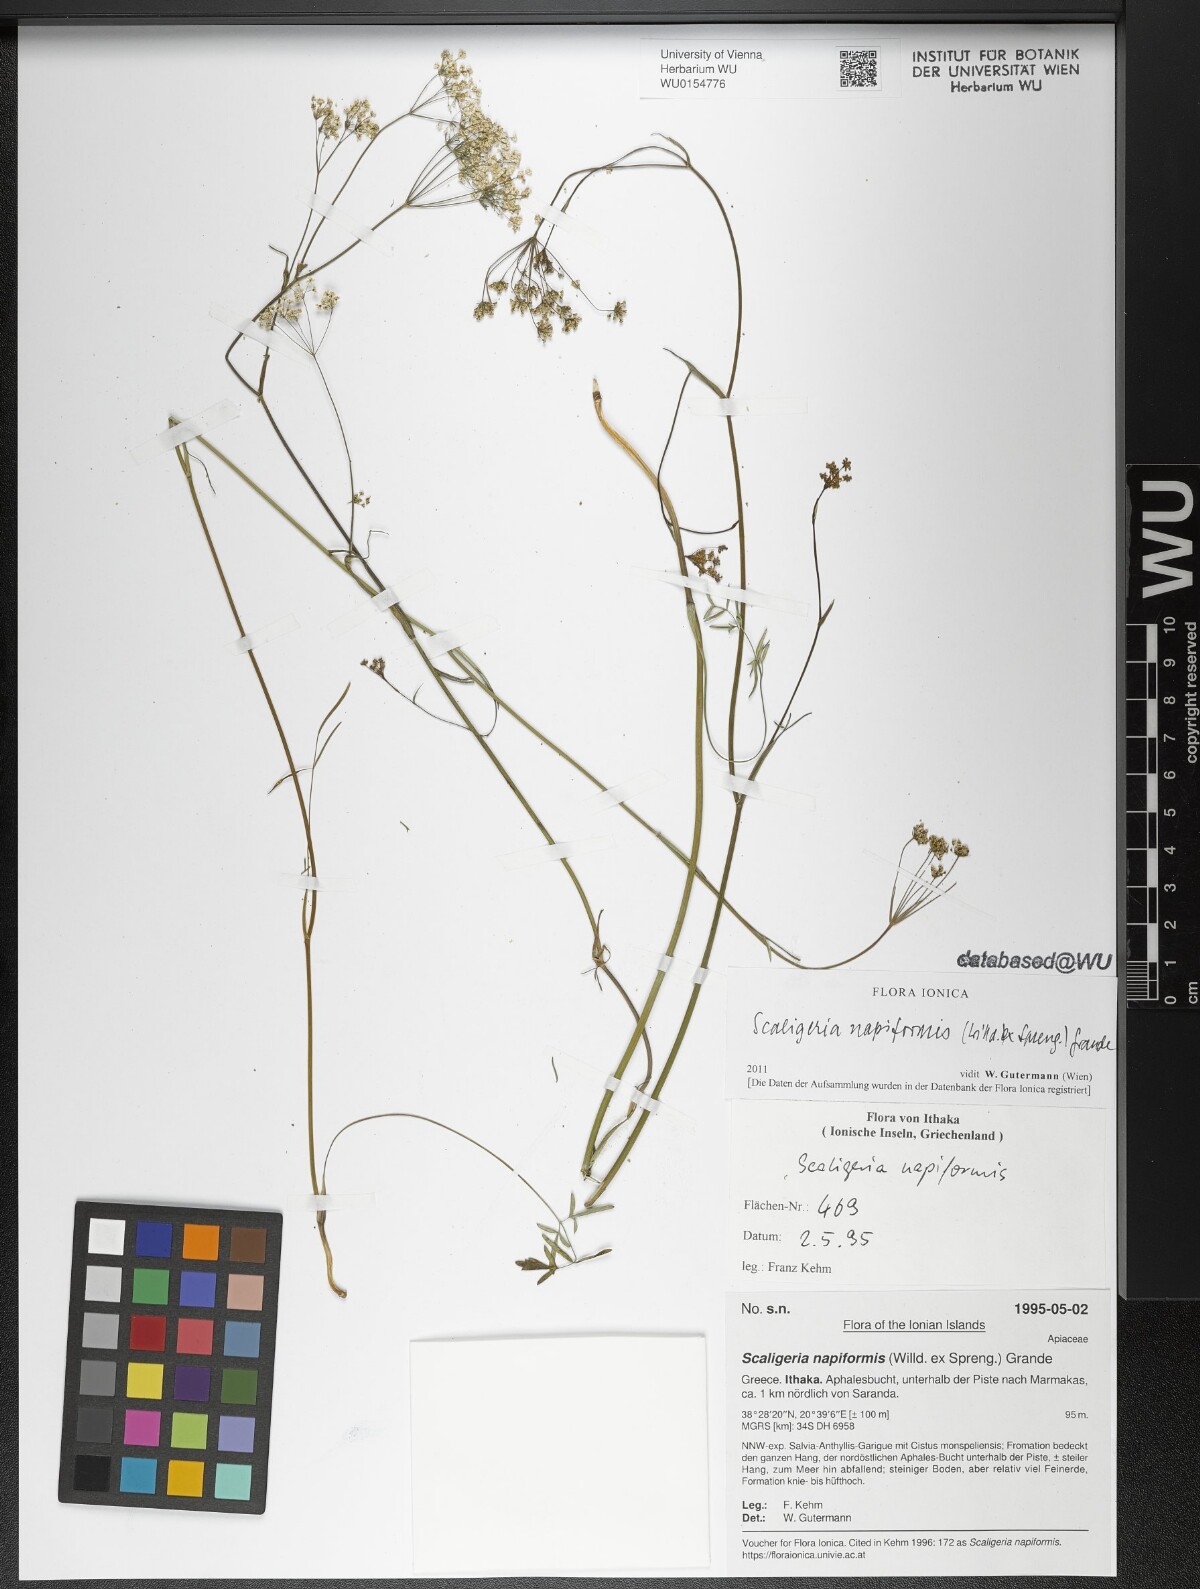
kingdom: Plantae
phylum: Tracheophyta
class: Magnoliopsida
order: Apiales
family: Apiaceae
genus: Scaligeria
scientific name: Scaligeria napiformis
